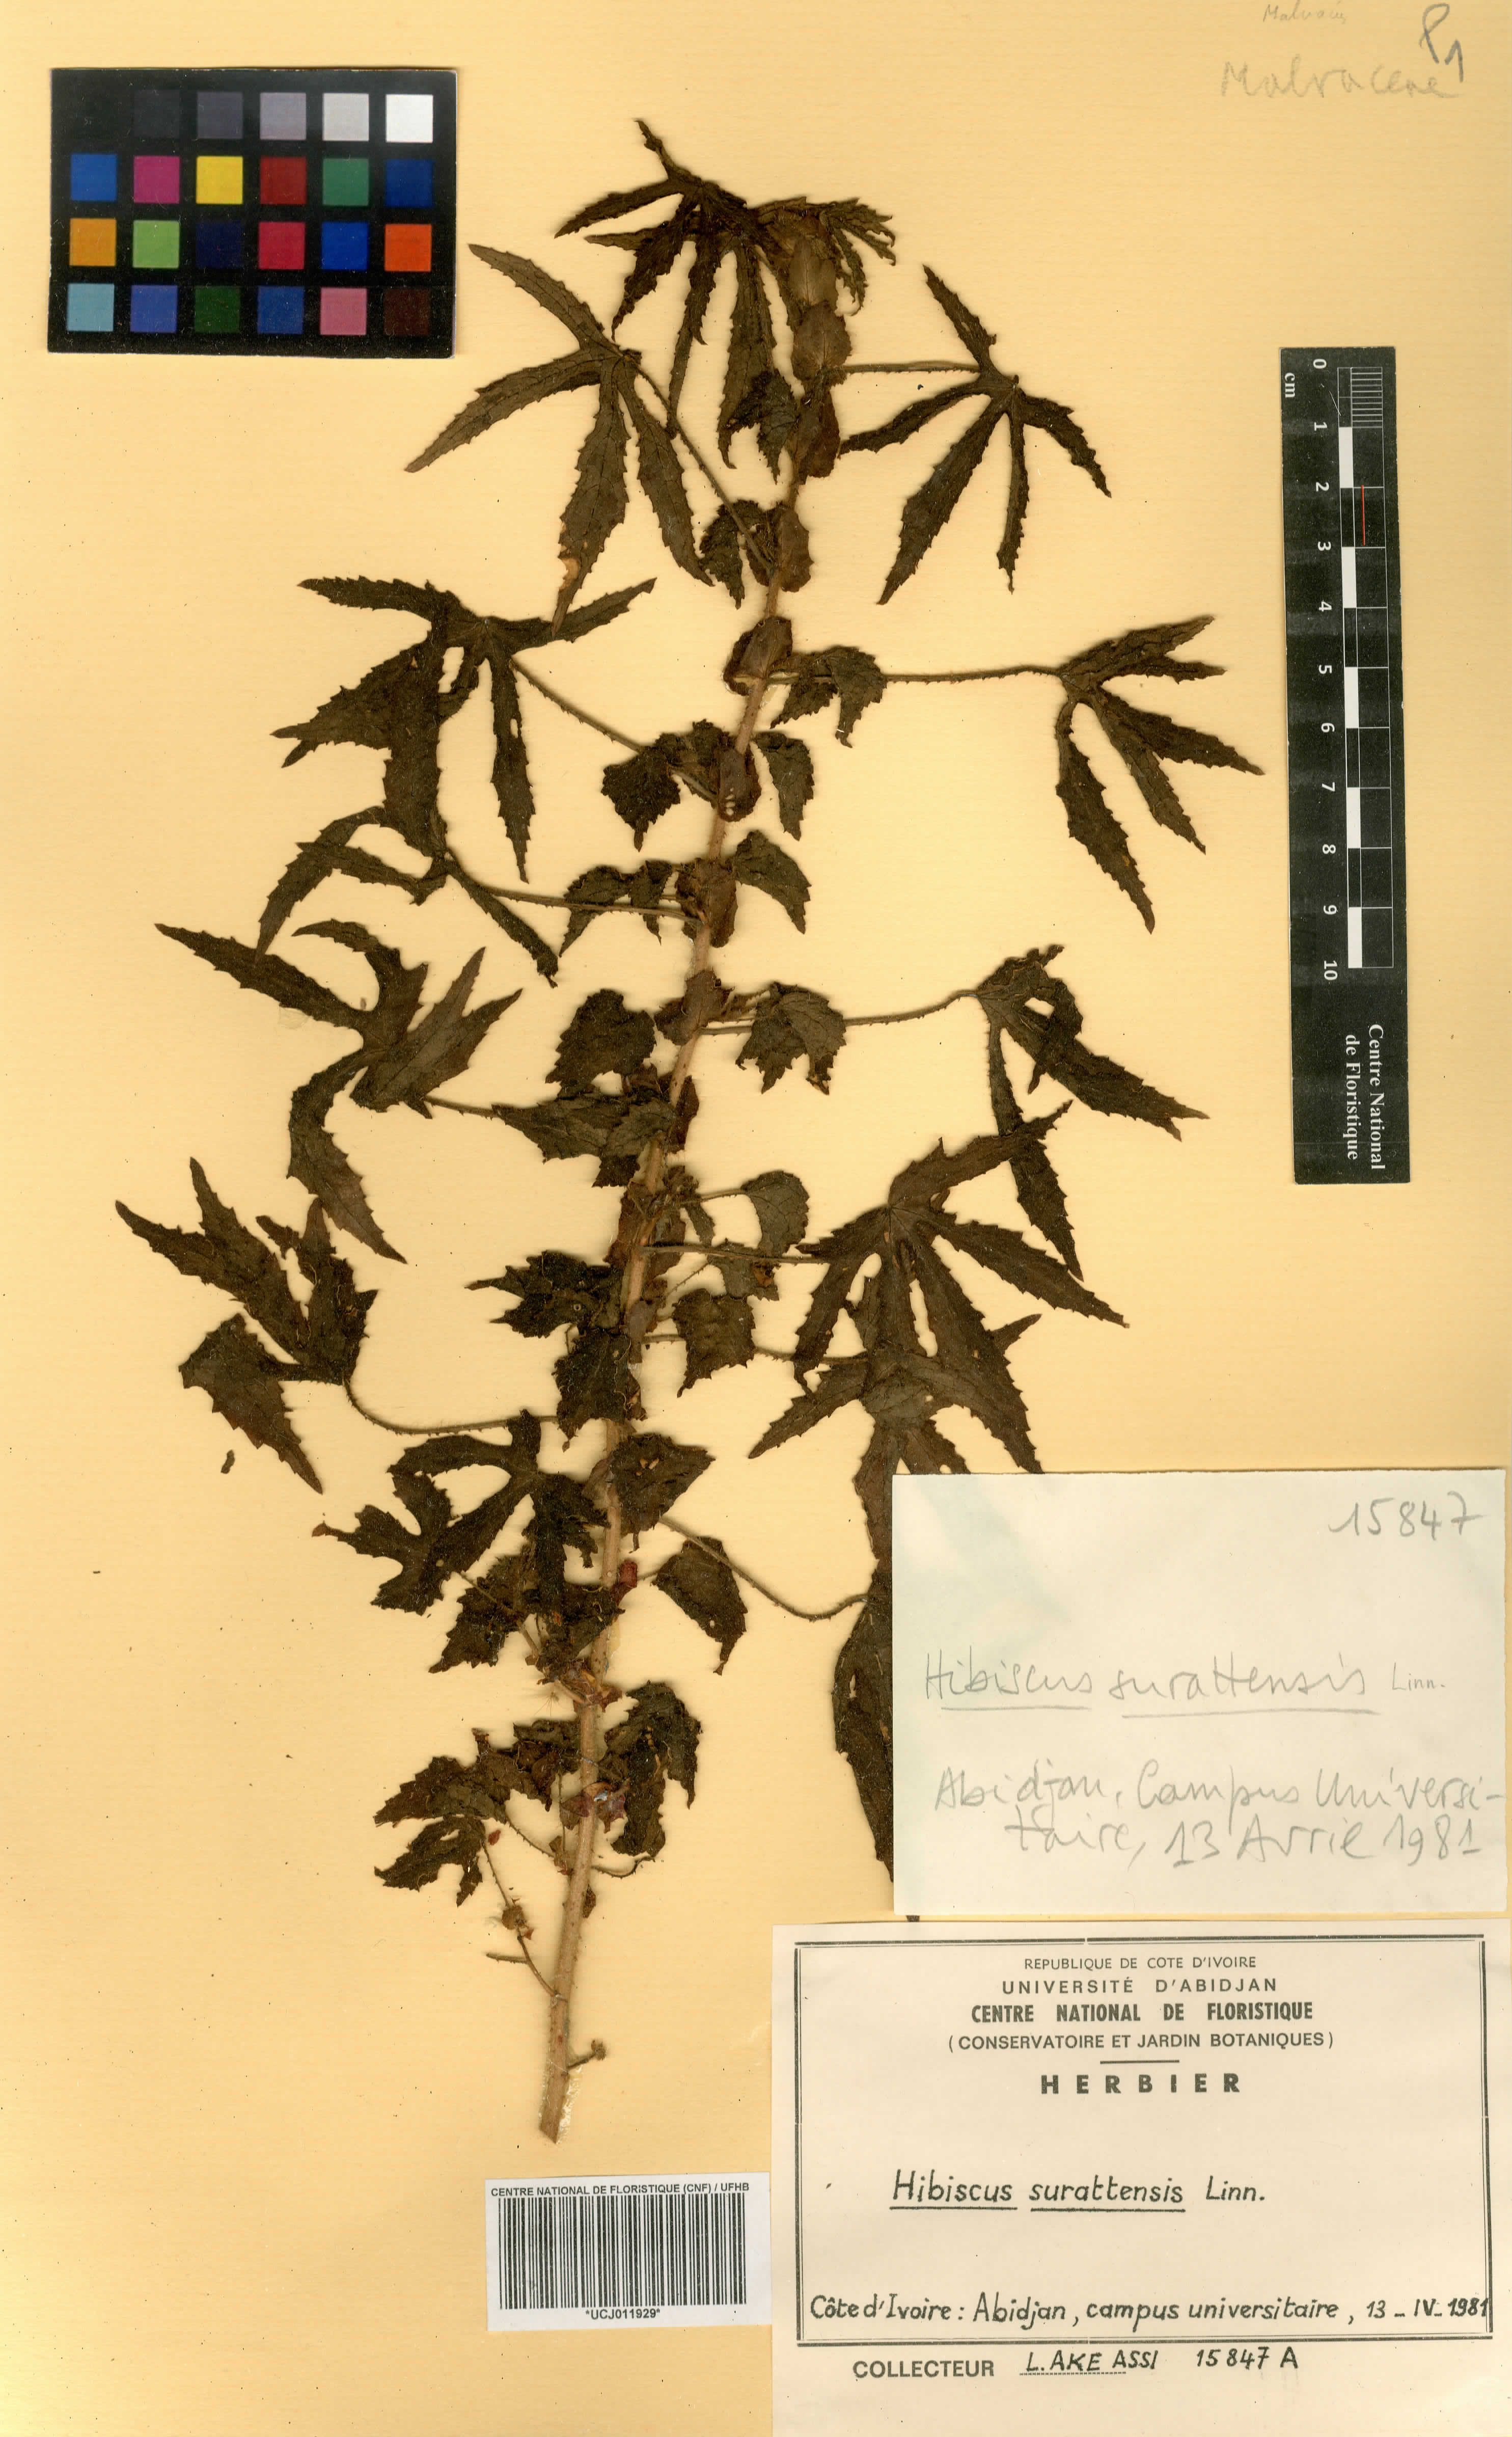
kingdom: Plantae
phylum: Tracheophyta
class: Magnoliopsida
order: Malvales
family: Malvaceae
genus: Hibiscus
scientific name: Hibiscus surattensis
